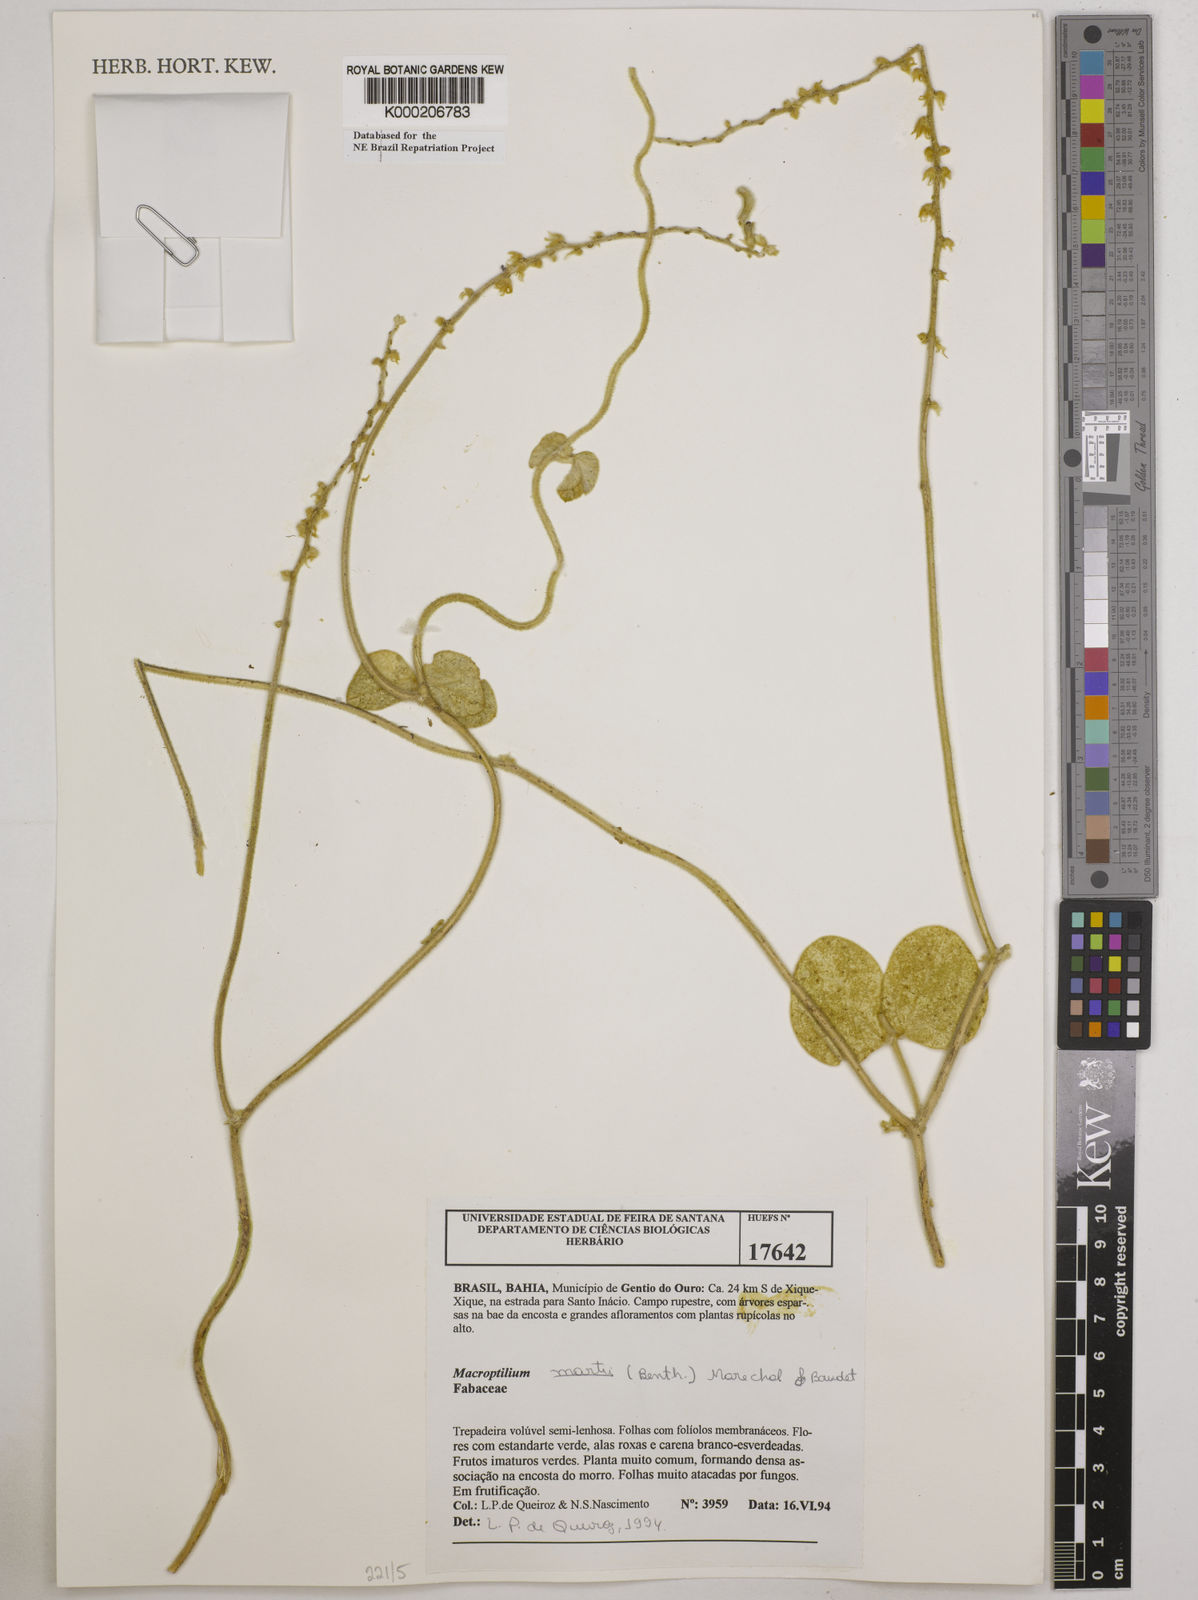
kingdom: Plantae
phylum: Tracheophyta
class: Magnoliopsida
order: Fabales
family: Fabaceae
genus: Macroptilium
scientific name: Macroptilium
